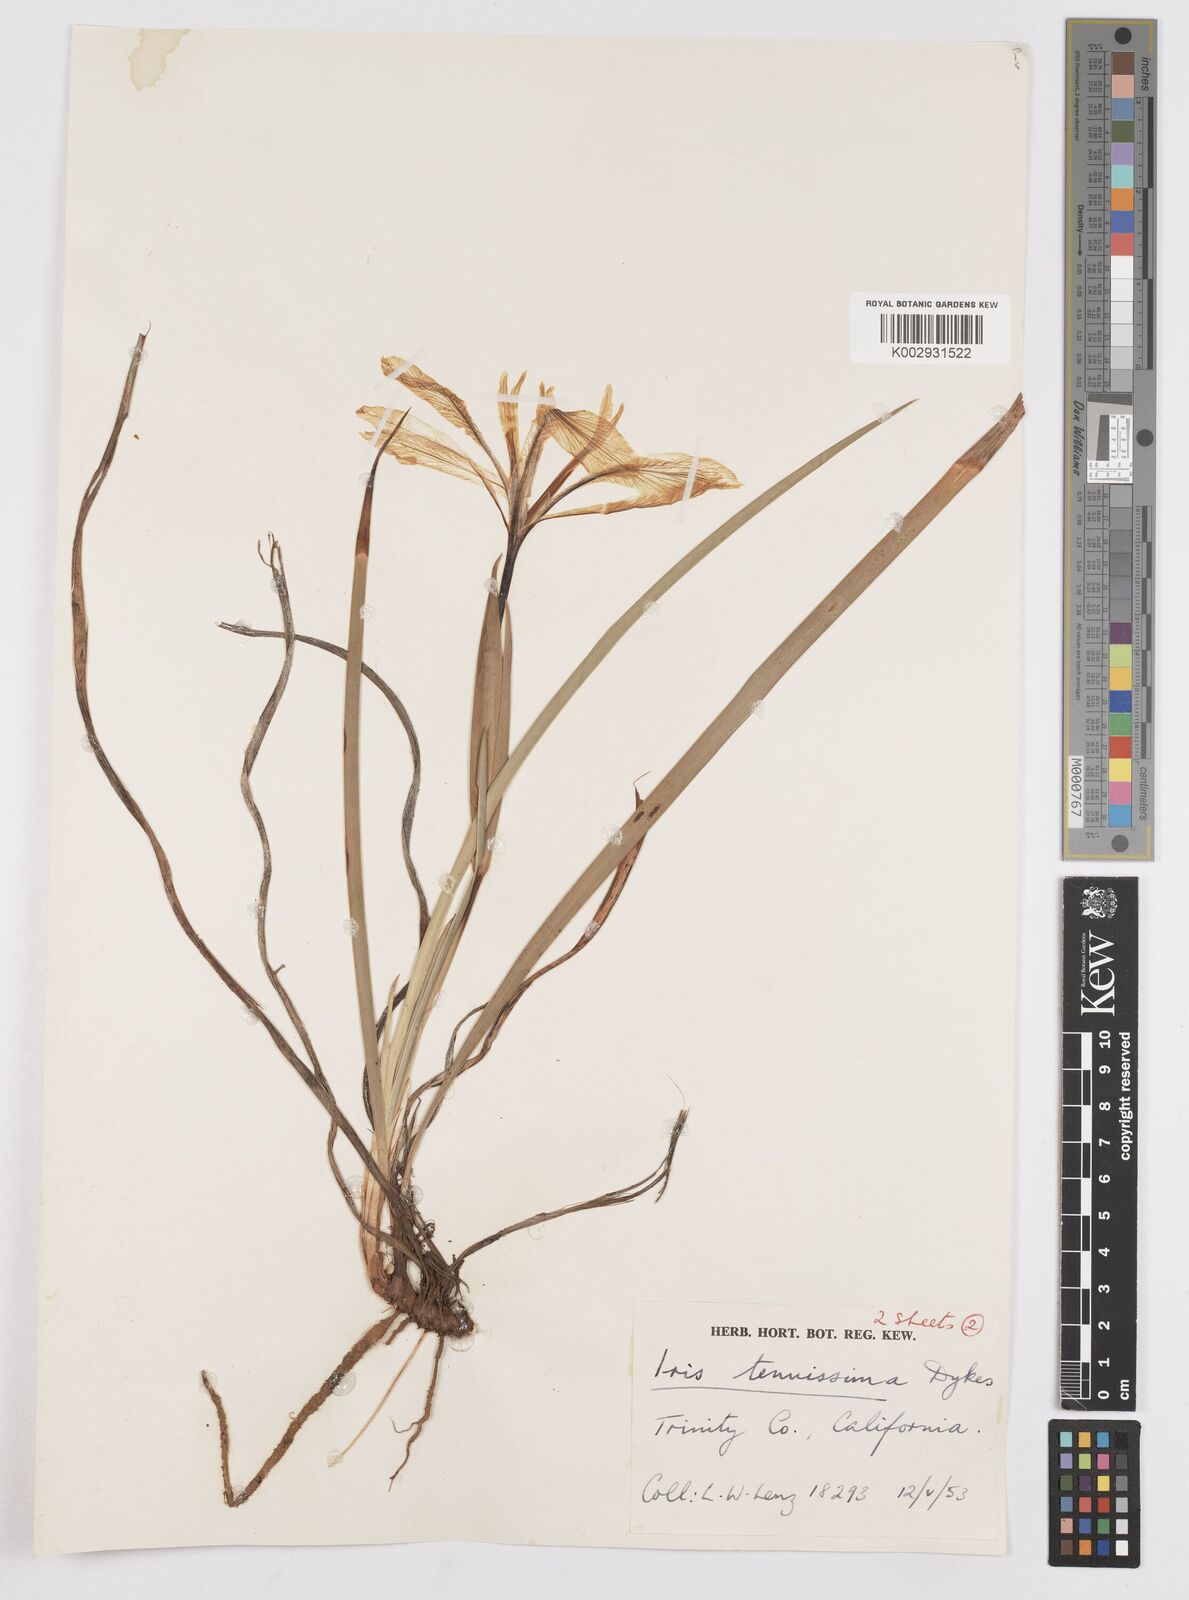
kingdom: Plantae
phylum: Tracheophyta
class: Liliopsida
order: Asparagales
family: Iridaceae
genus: Iris
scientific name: Iris tenuissima
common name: Long-tube iris
